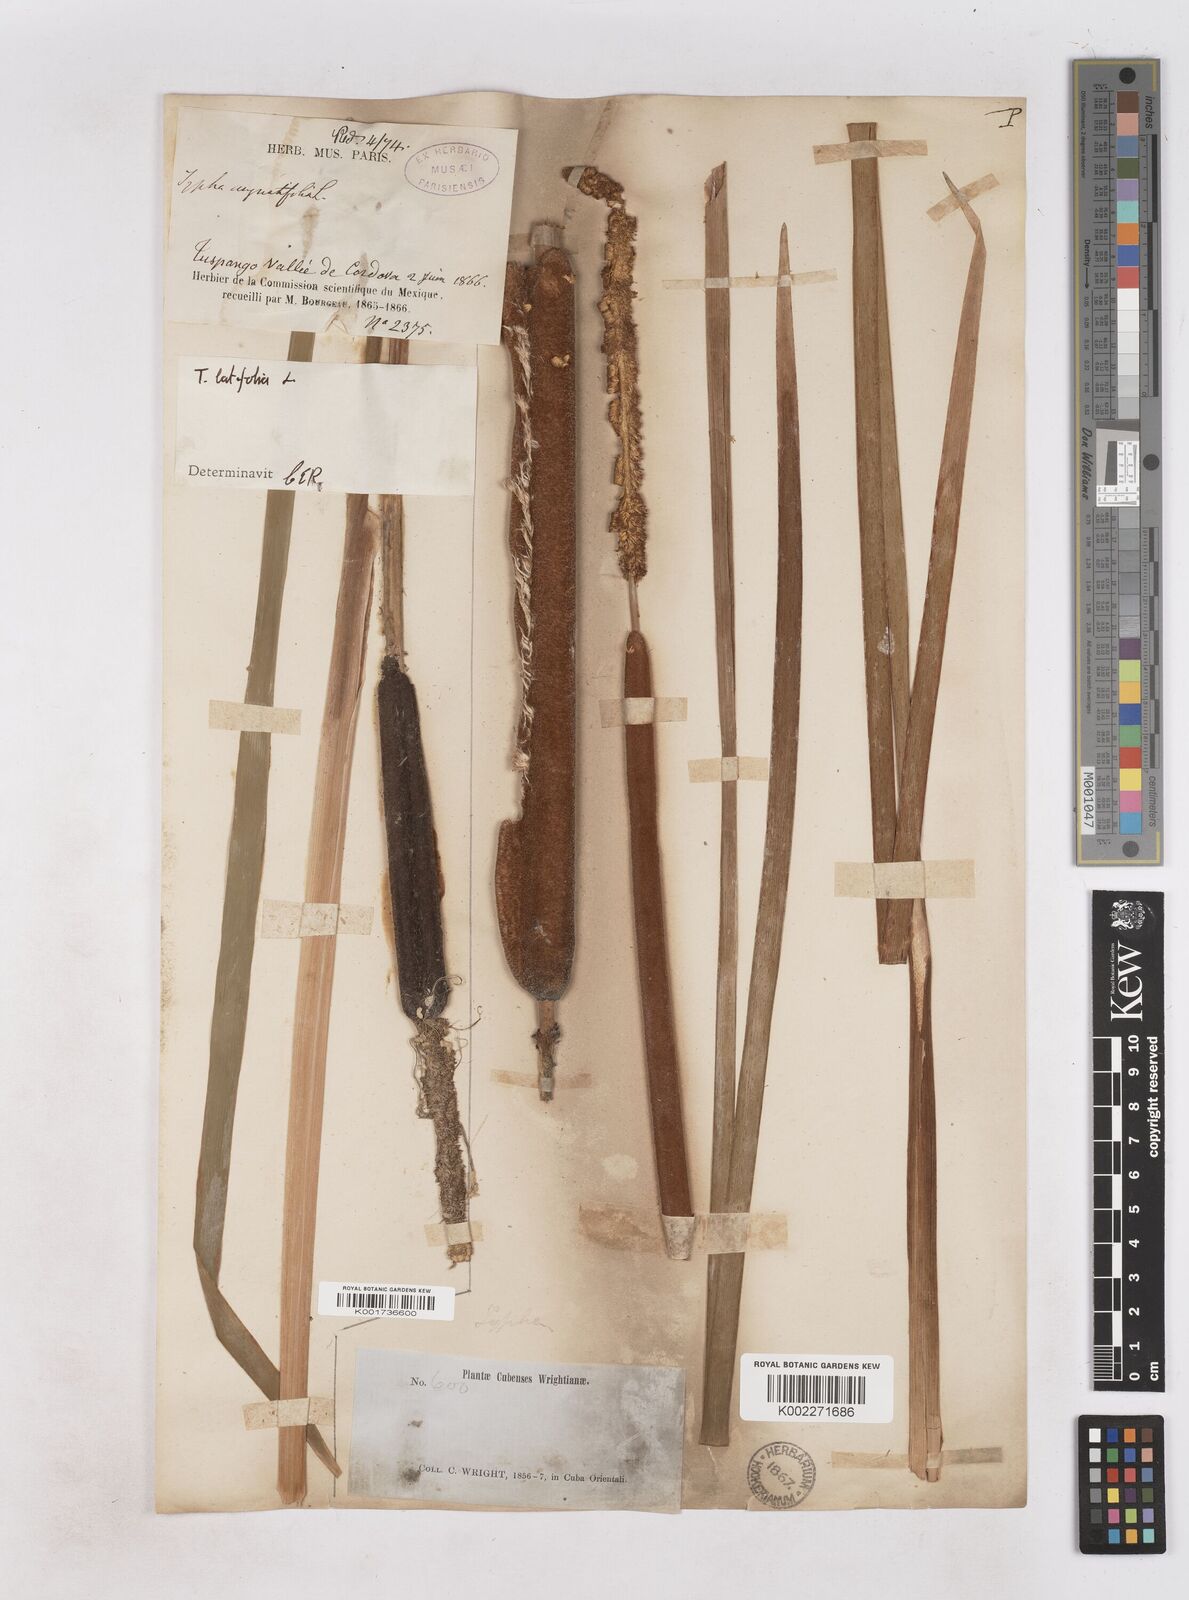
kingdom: Plantae
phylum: Tracheophyta
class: Liliopsida
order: Poales
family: Typhaceae
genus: Typha
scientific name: Typha latifolia
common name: Broadleaf cattail
